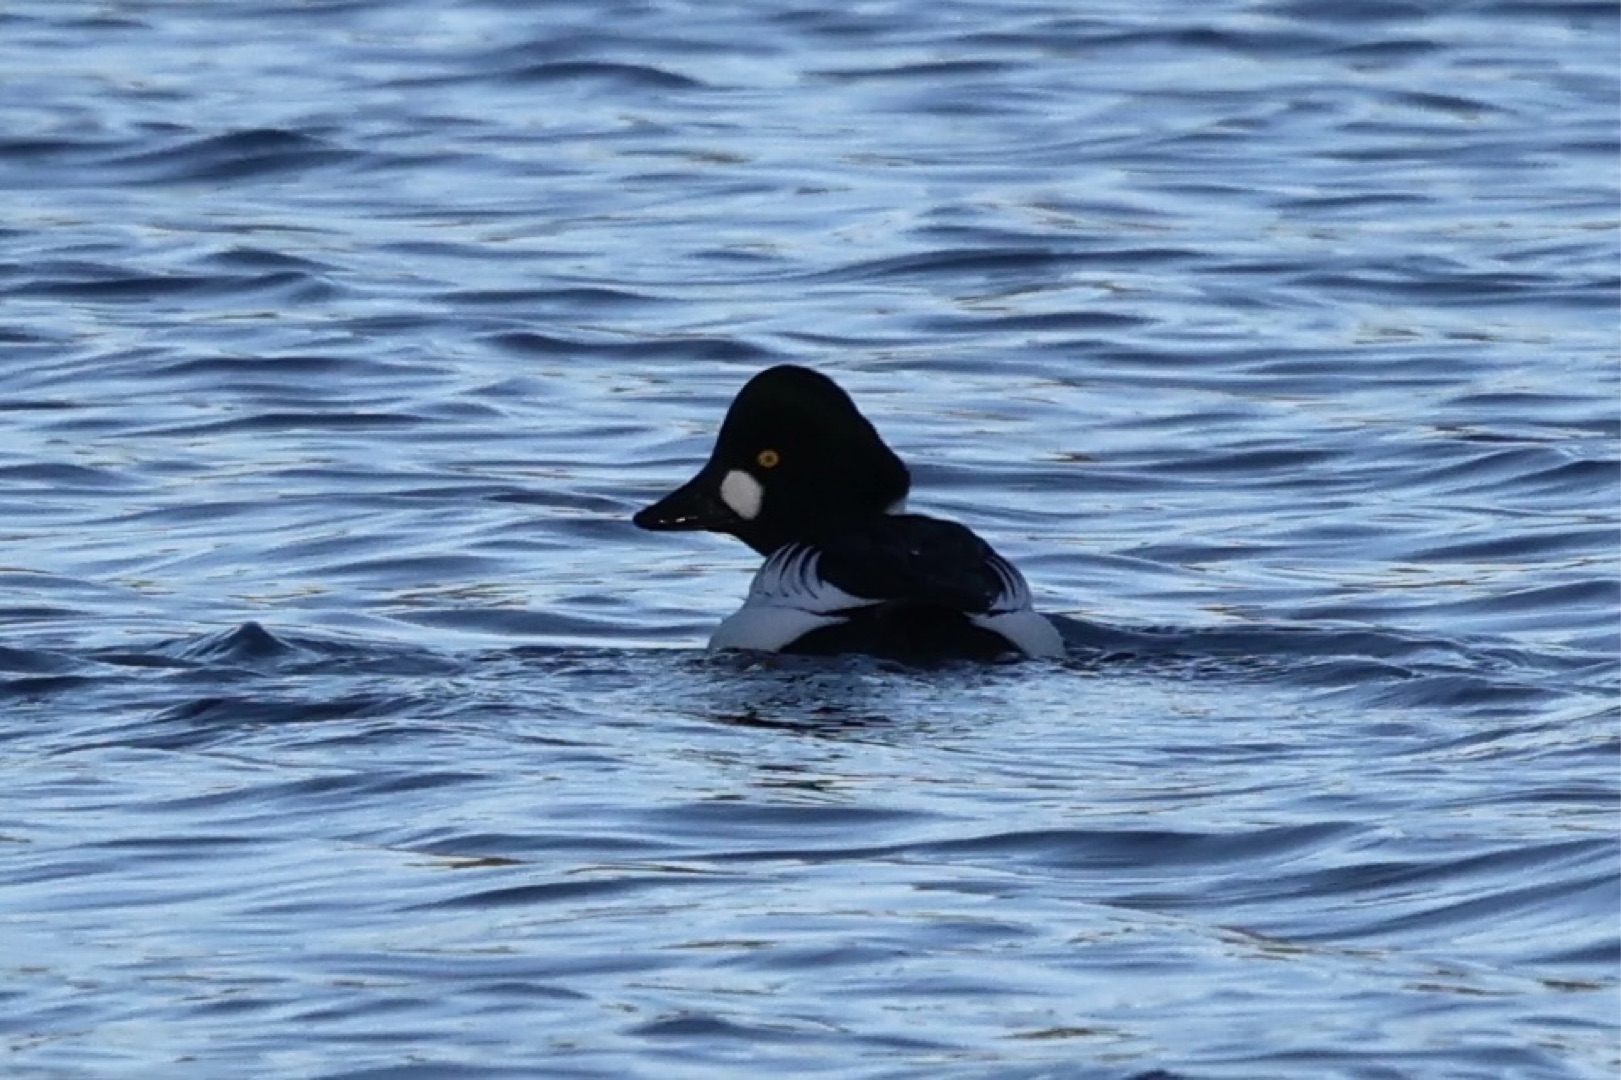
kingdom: Animalia
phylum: Chordata
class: Aves
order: Anseriformes
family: Anatidae
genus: Bucephala
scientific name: Bucephala clangula
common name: Hvinand
